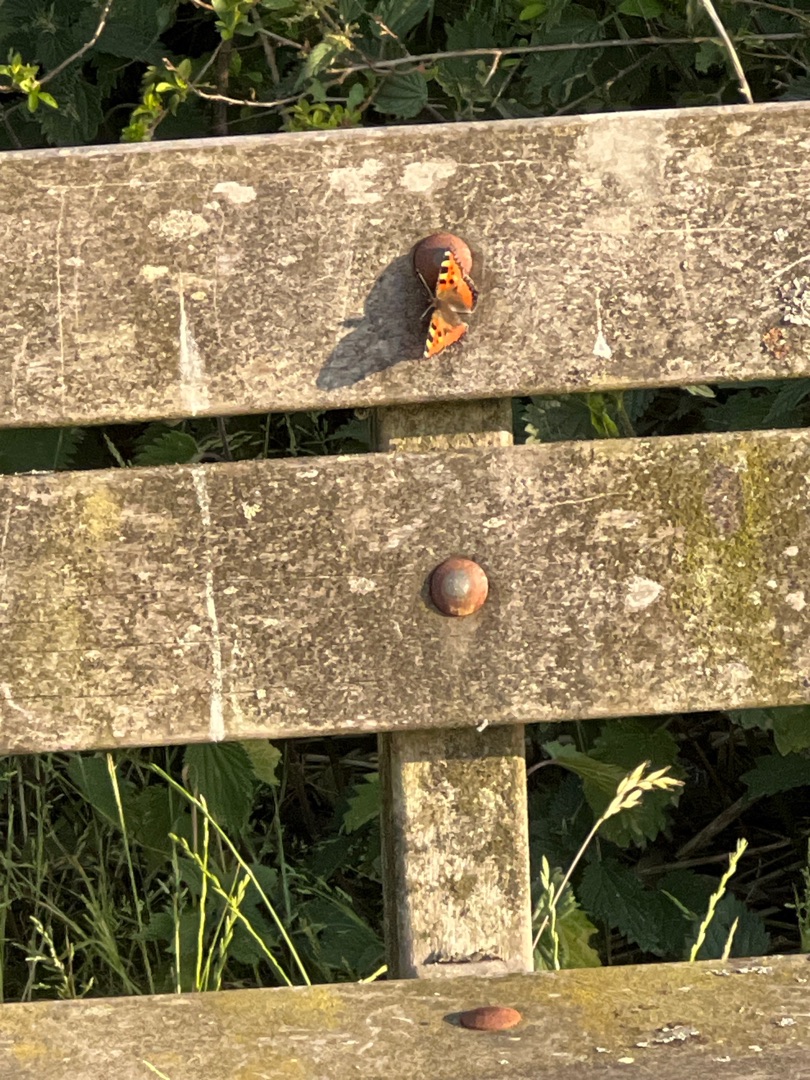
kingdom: Animalia
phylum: Arthropoda
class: Insecta
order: Lepidoptera
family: Nymphalidae
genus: Aglais
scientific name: Aglais urticae
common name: Nældens takvinge
